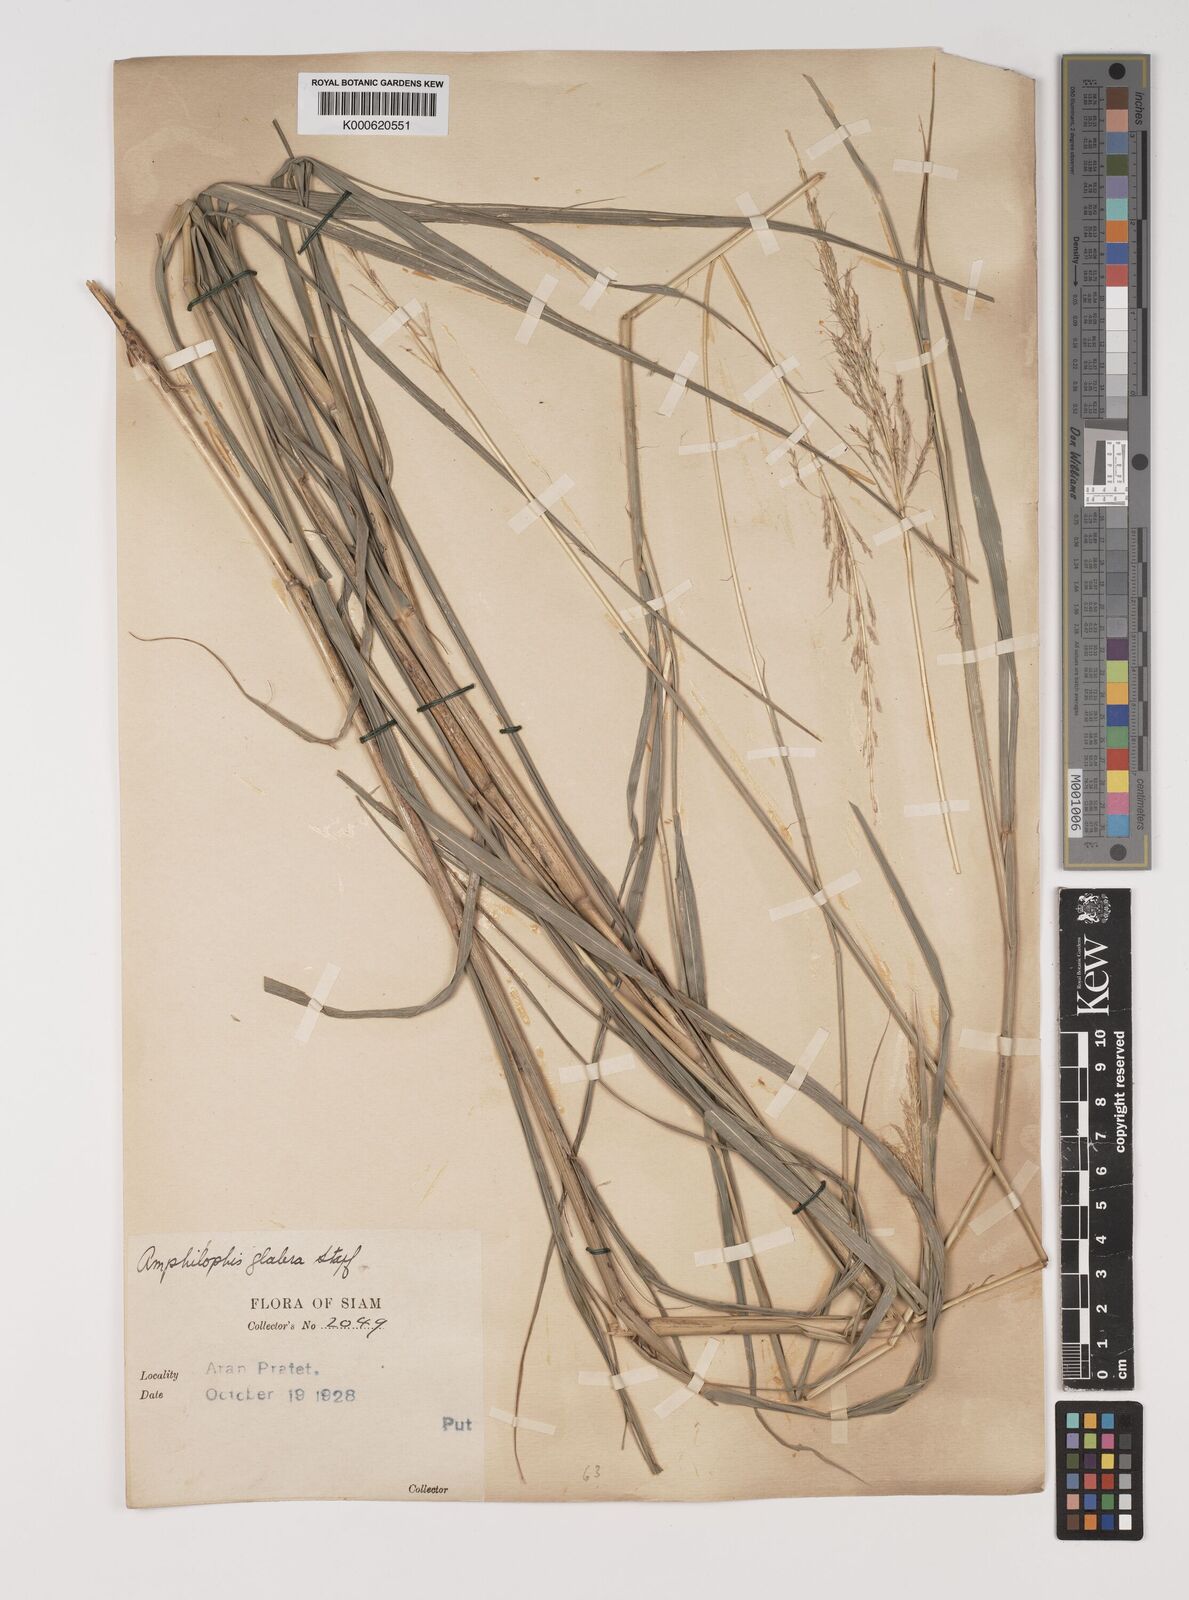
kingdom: Plantae
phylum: Tracheophyta
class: Liliopsida
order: Poales
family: Poaceae
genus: Bothriochloa
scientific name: Bothriochloa bladhii
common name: Caucasian bluestem
